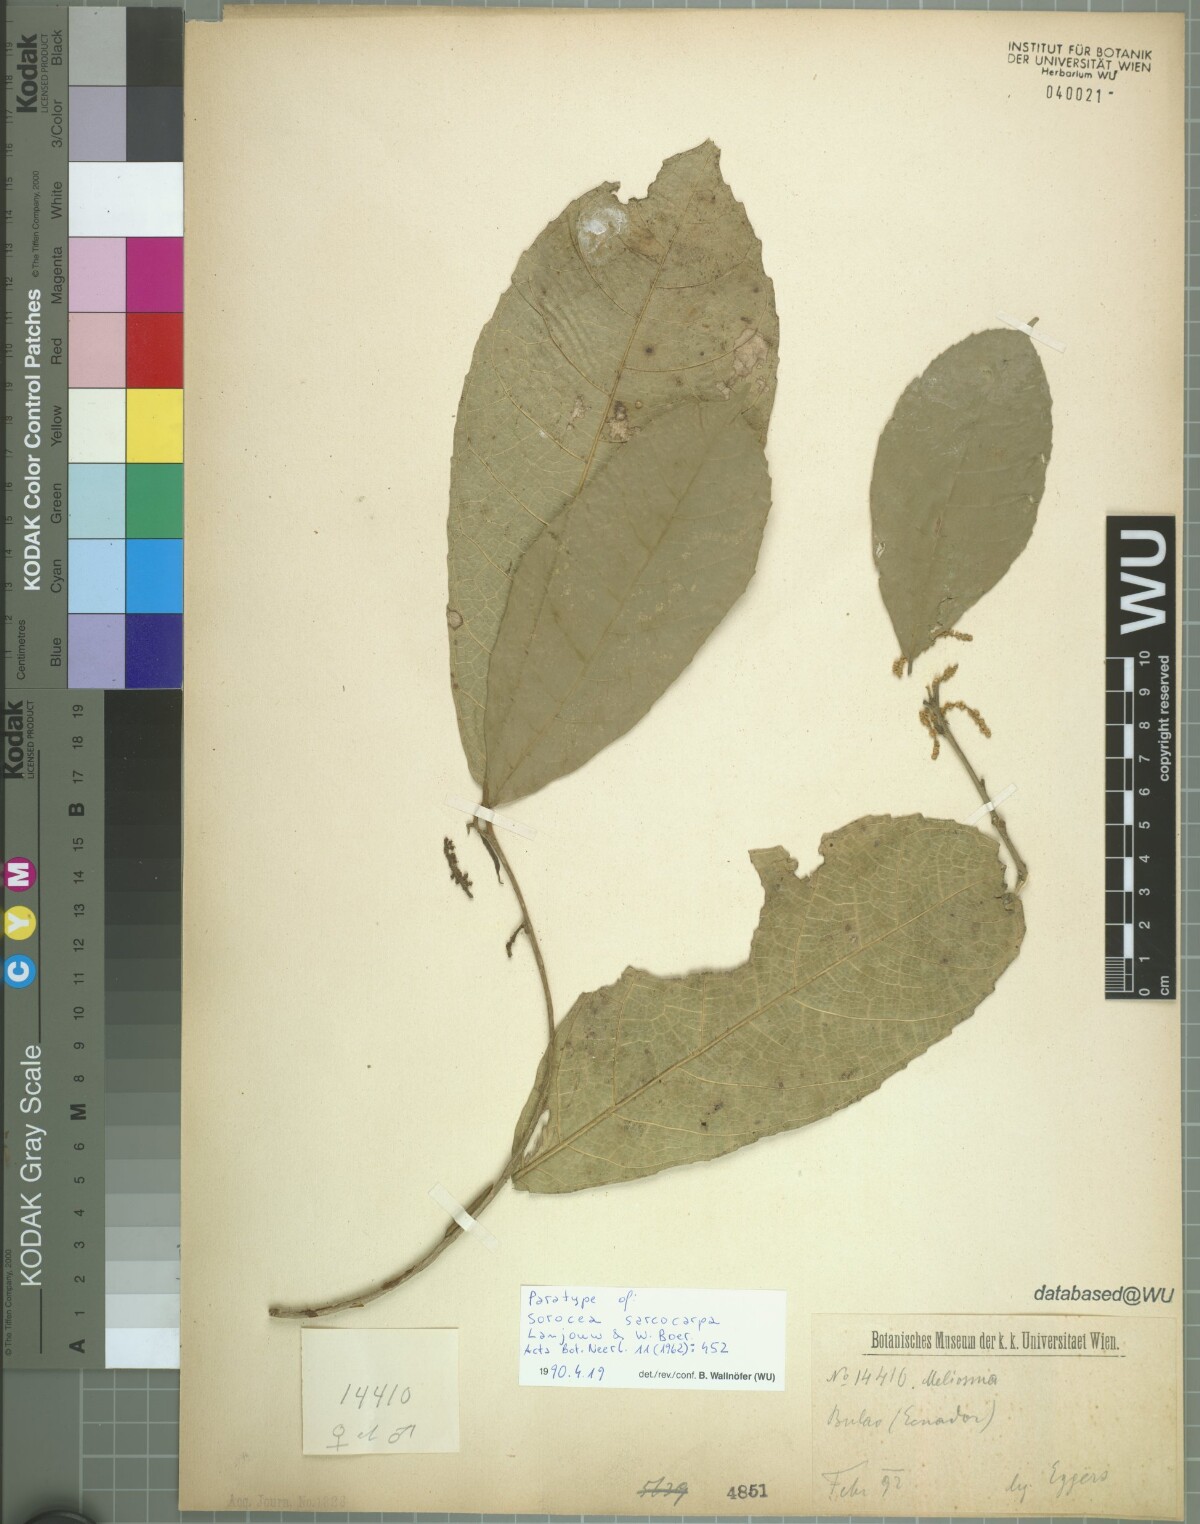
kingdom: Plantae
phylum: Tracheophyta
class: Magnoliopsida
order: Rosales
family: Moraceae
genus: Sorocea
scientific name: Sorocea sarcocarpa
